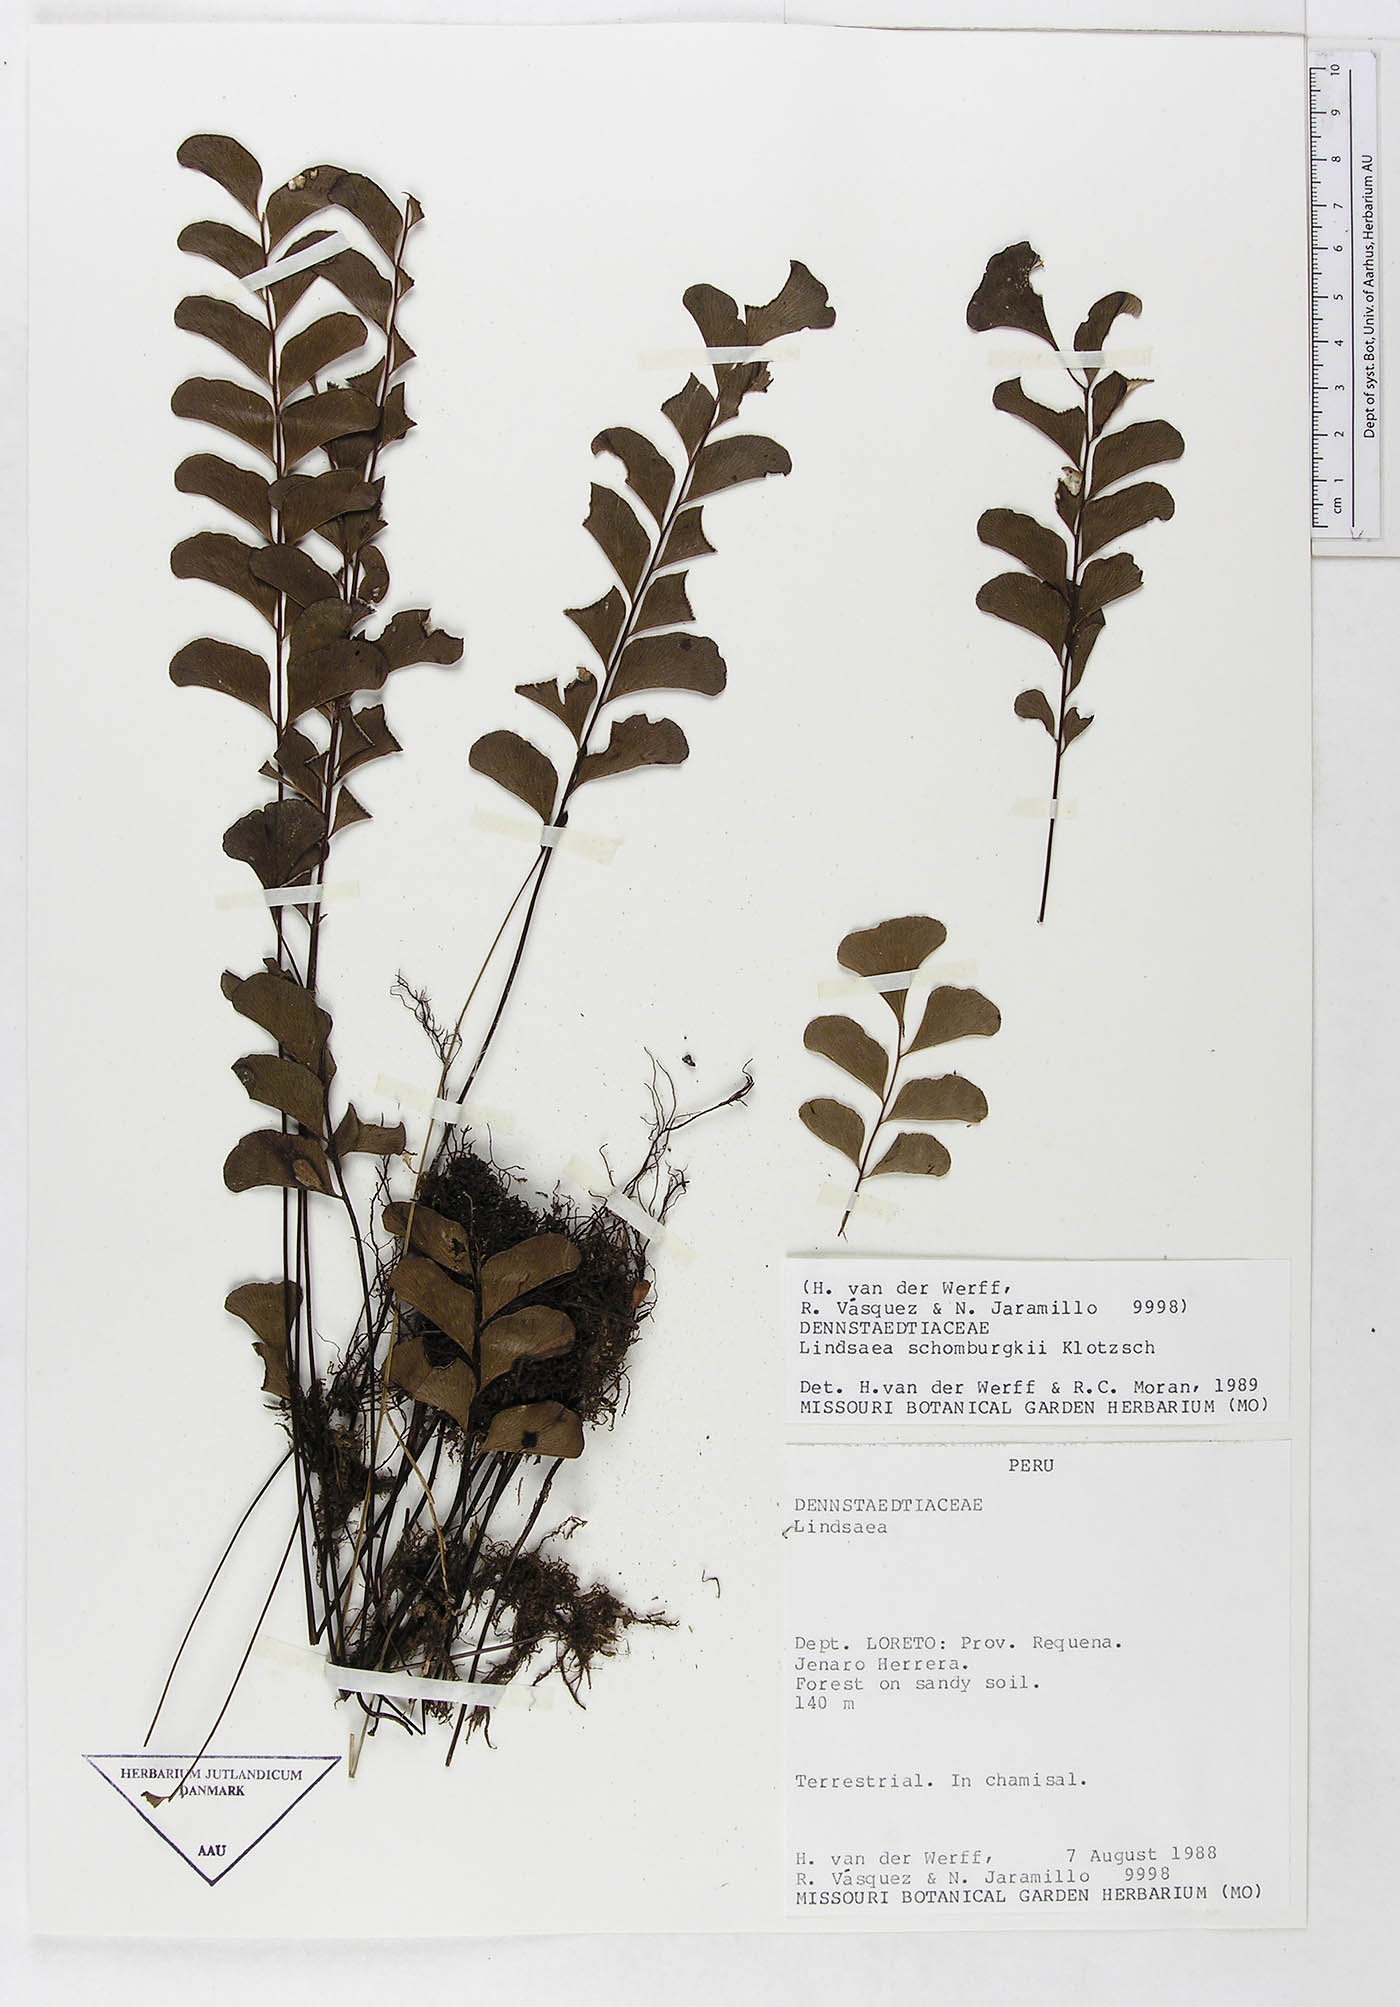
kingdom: Plantae
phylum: Tracheophyta
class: Polypodiopsida
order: Polypodiales
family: Dennstaedtiaceae
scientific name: Dennstaedtiaceae
